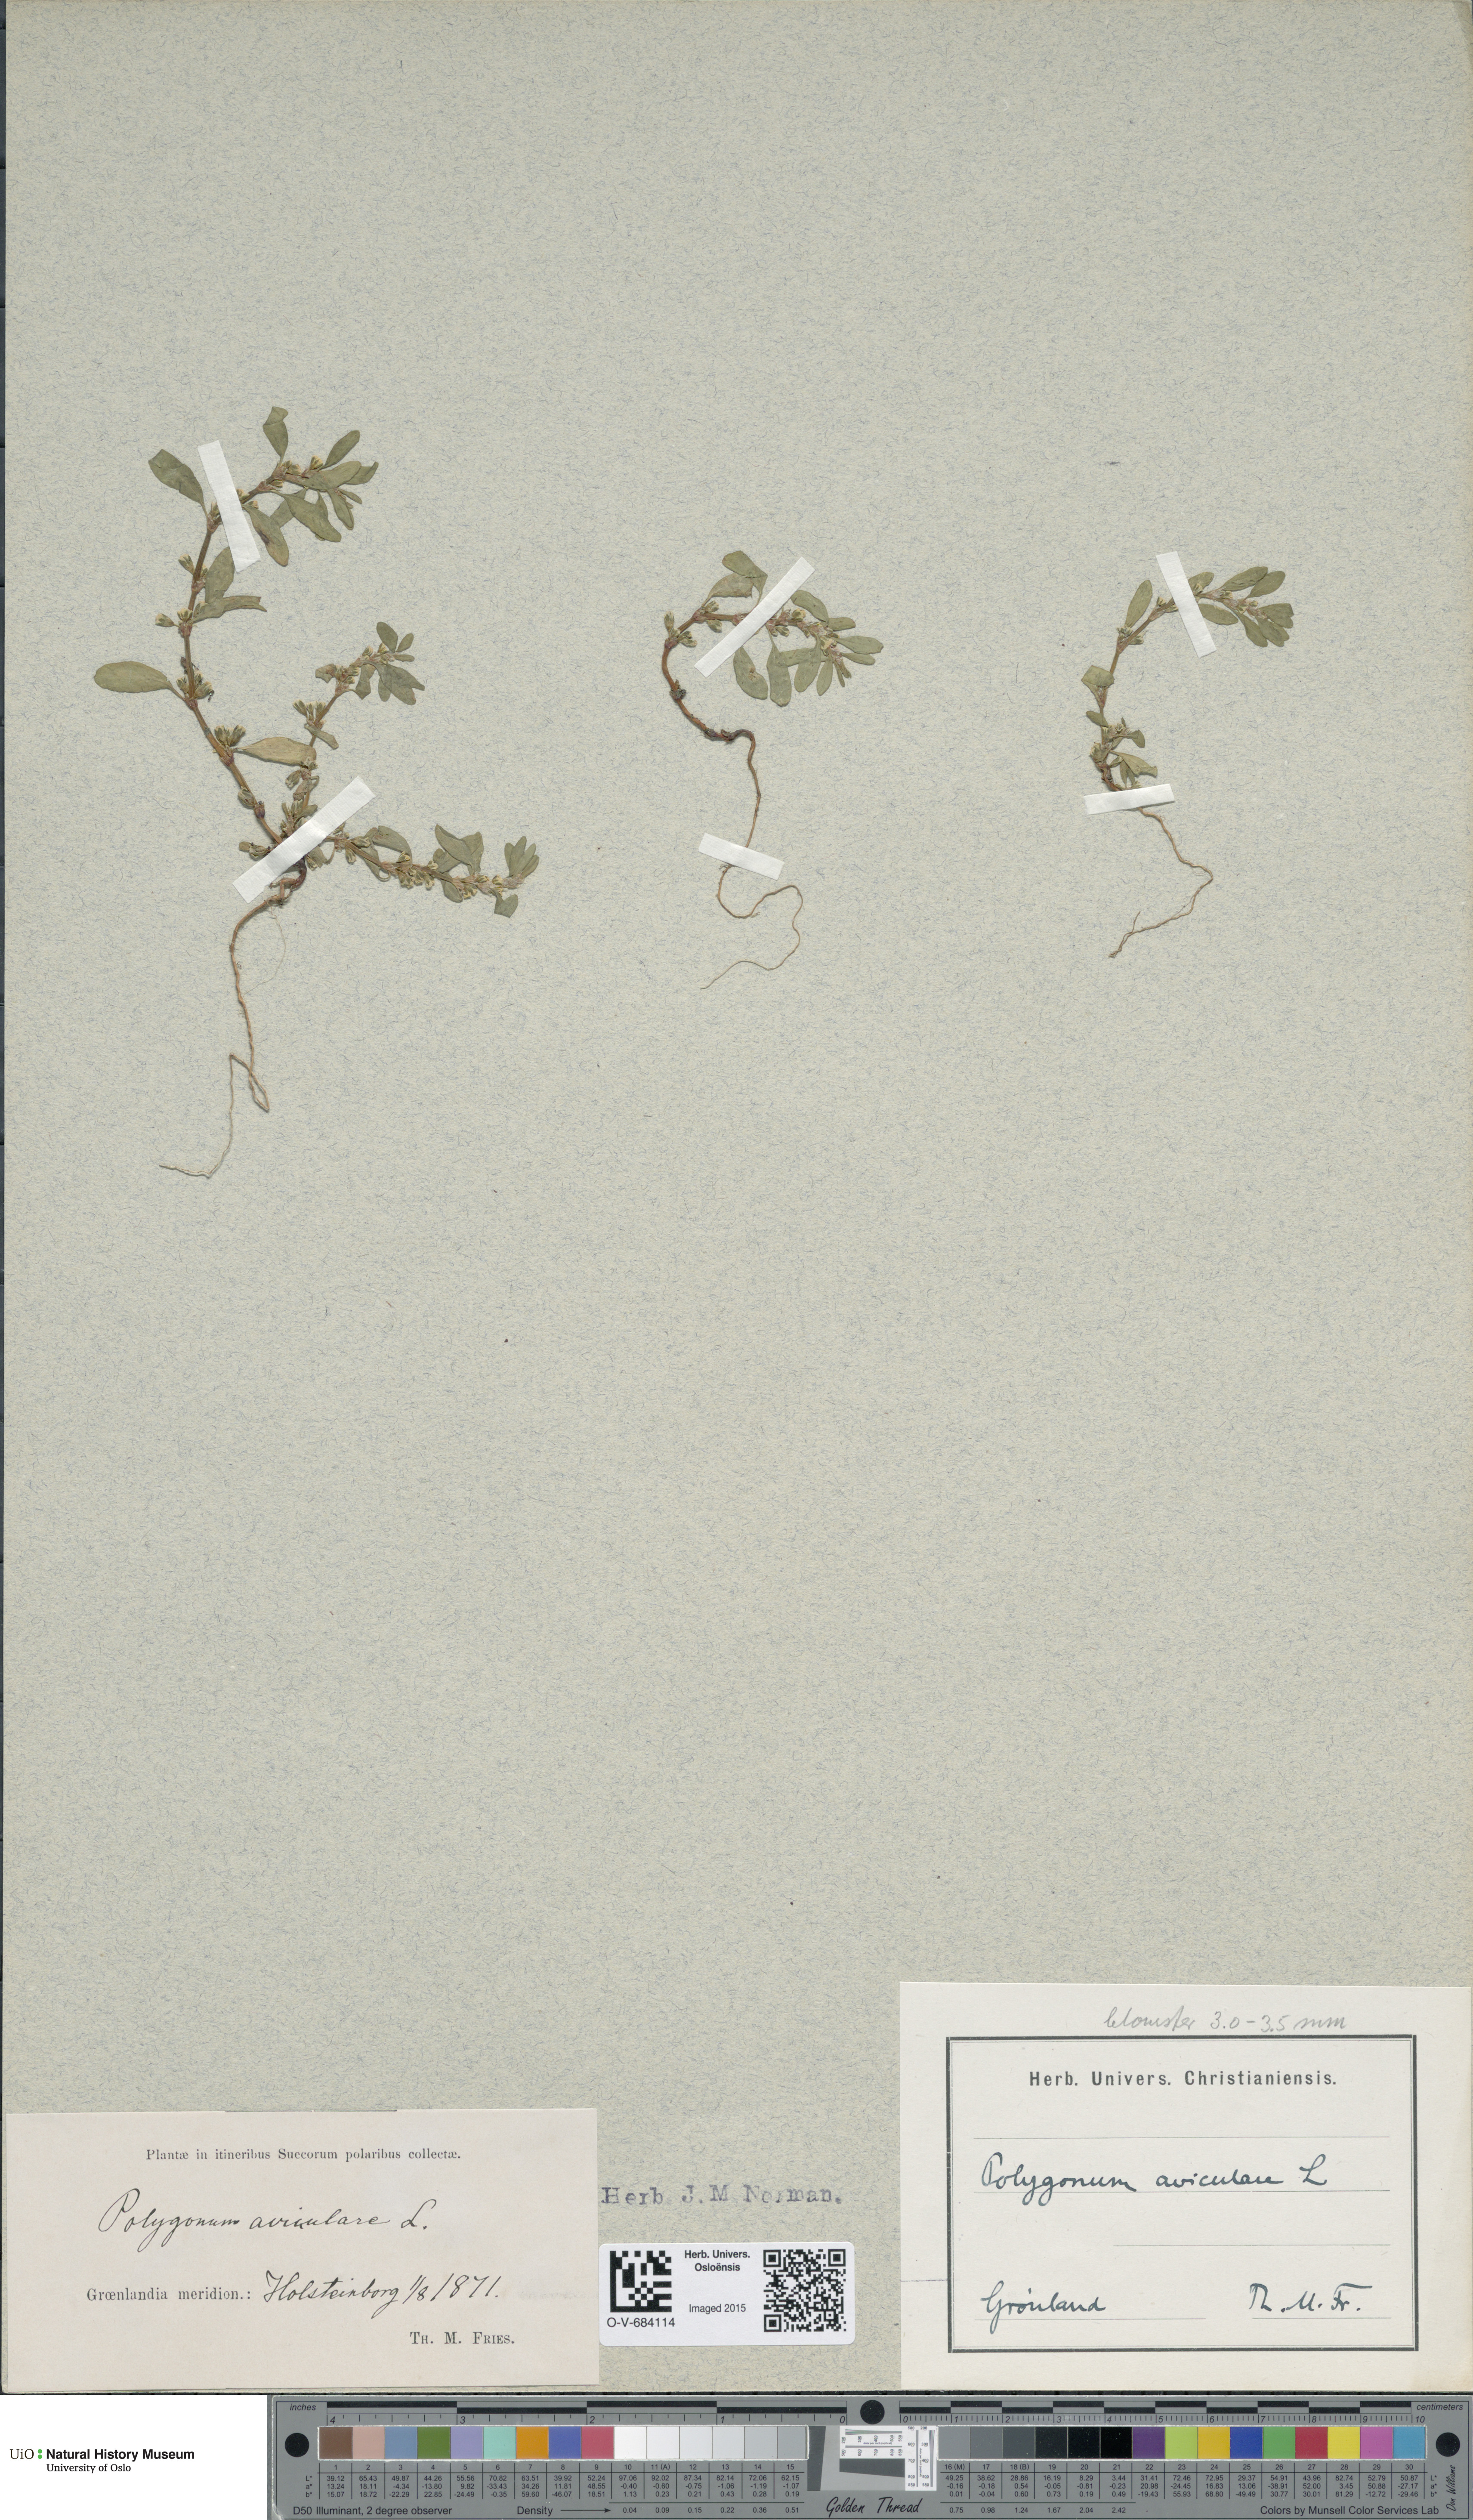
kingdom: Plantae
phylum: Tracheophyta
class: Magnoliopsida
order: Caryophyllales
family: Polygonaceae
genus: Polygonum
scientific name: Polygonum aviculare
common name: Prostrate knotweed
